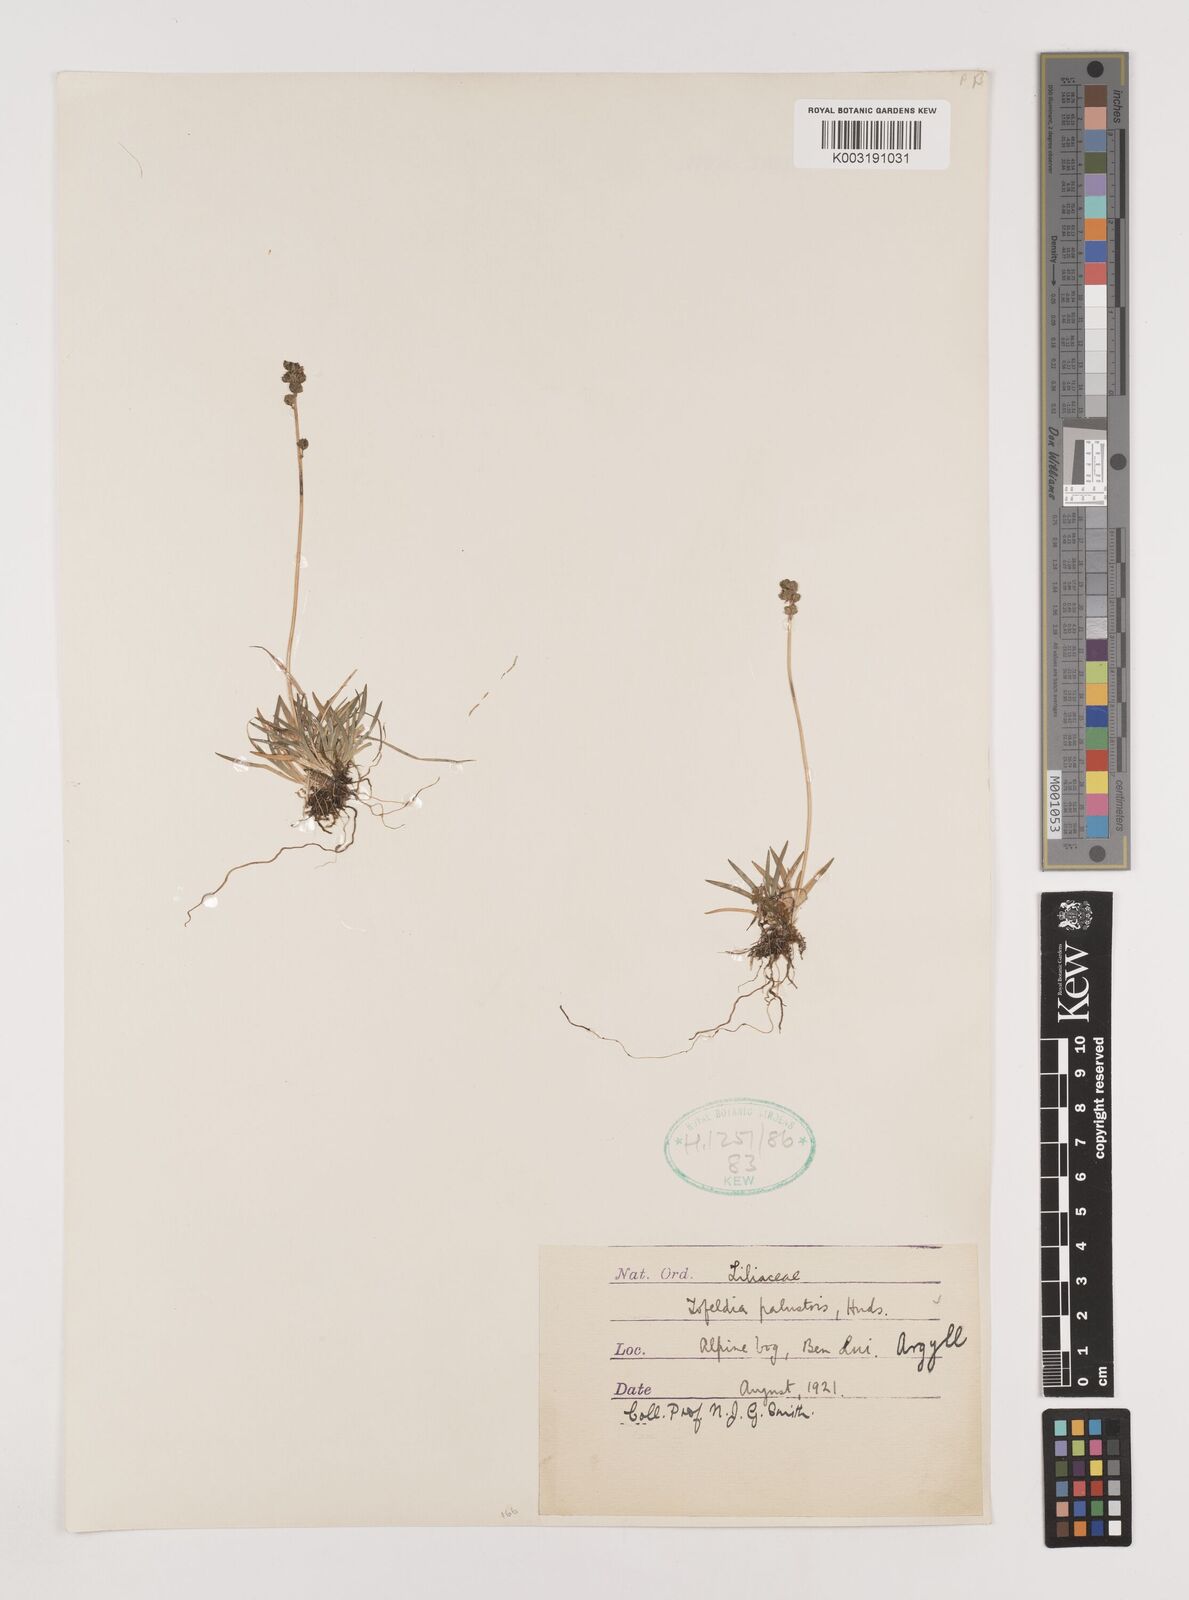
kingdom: Plantae
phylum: Tracheophyta
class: Liliopsida
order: Alismatales
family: Tofieldiaceae
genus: Tofieldia
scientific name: Tofieldia pusilla
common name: Scottish false asphodel
